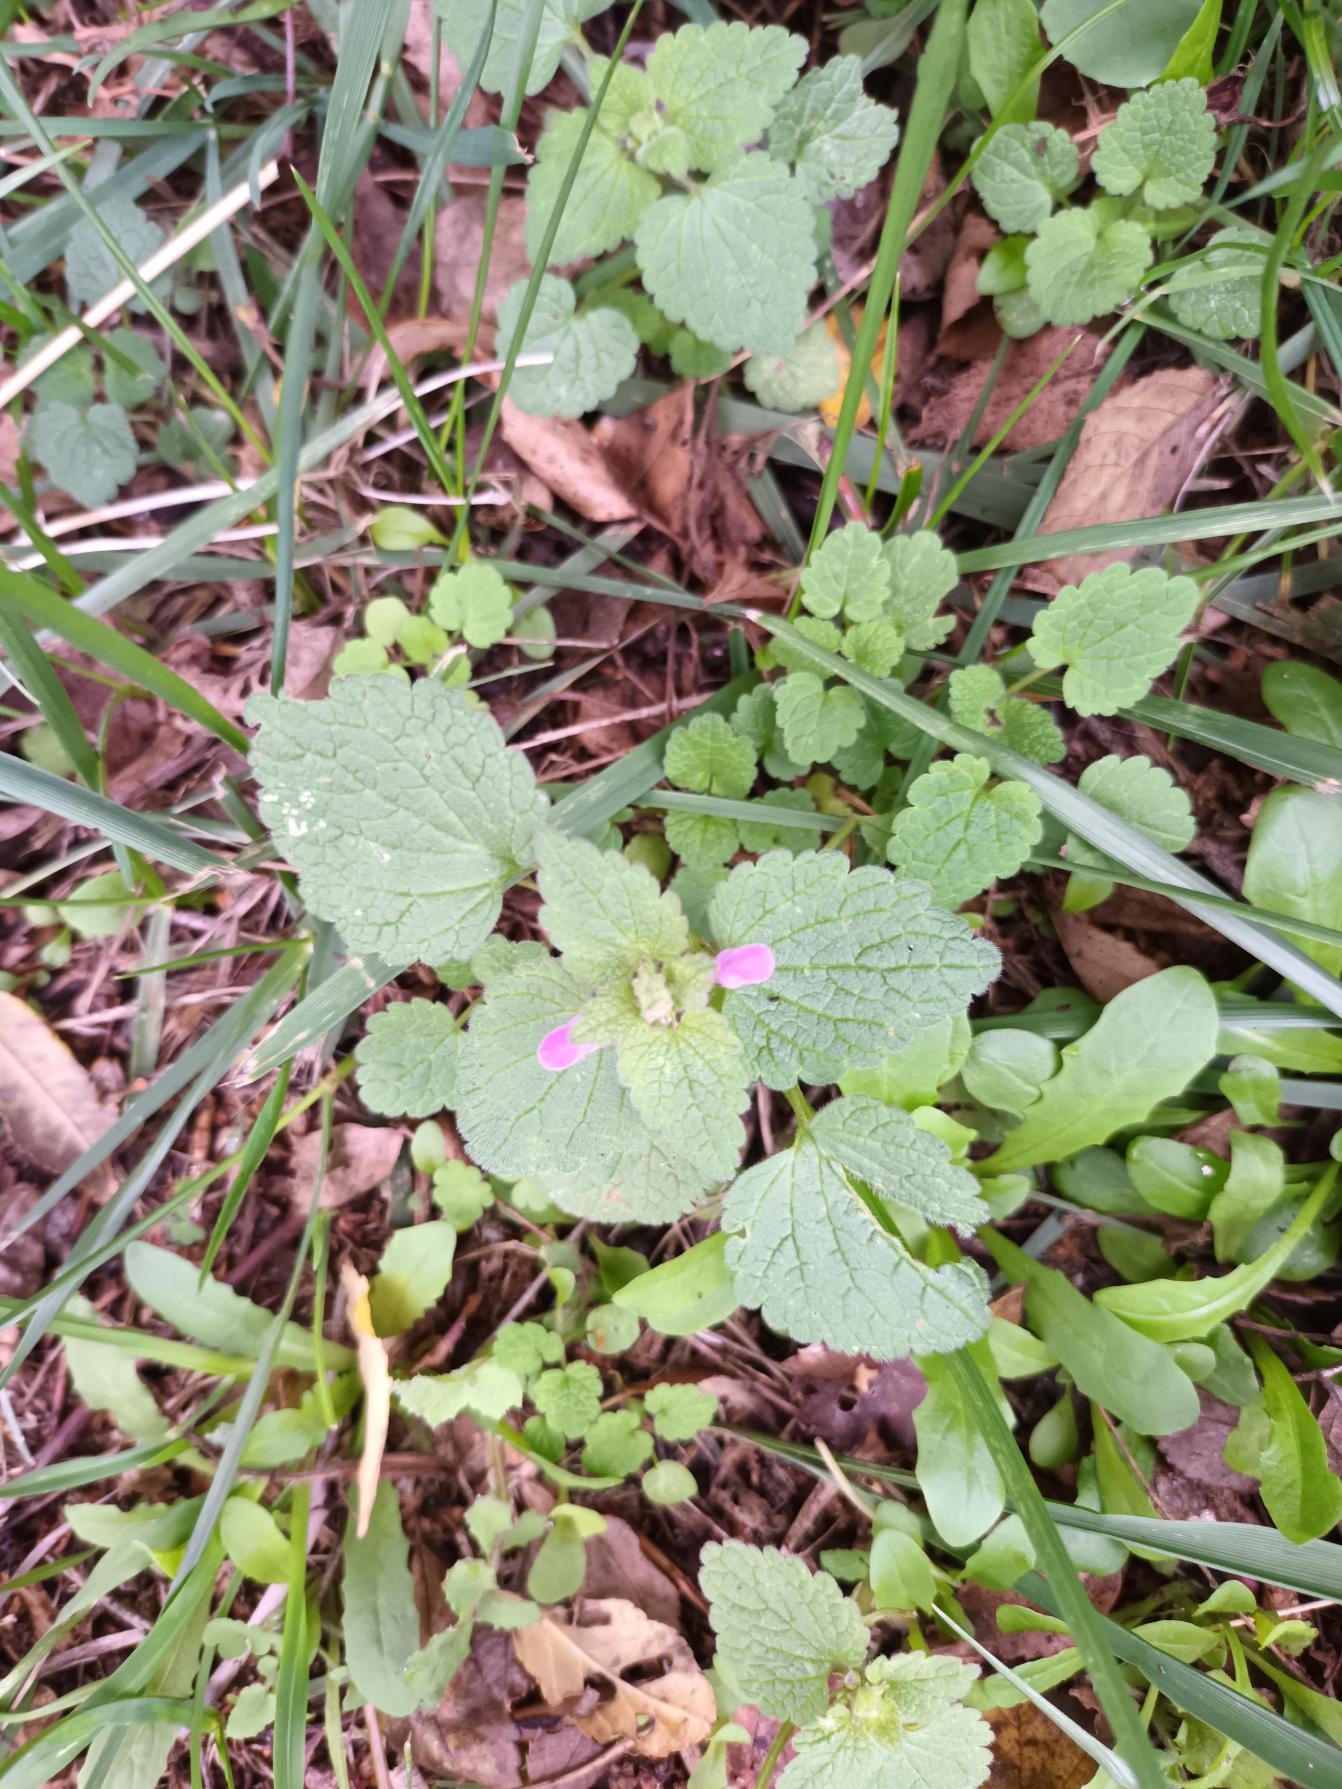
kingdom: Plantae
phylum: Tracheophyta
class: Magnoliopsida
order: Lamiales
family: Lamiaceae
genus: Lamium
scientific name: Lamium purpureum
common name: Rød tvetand
